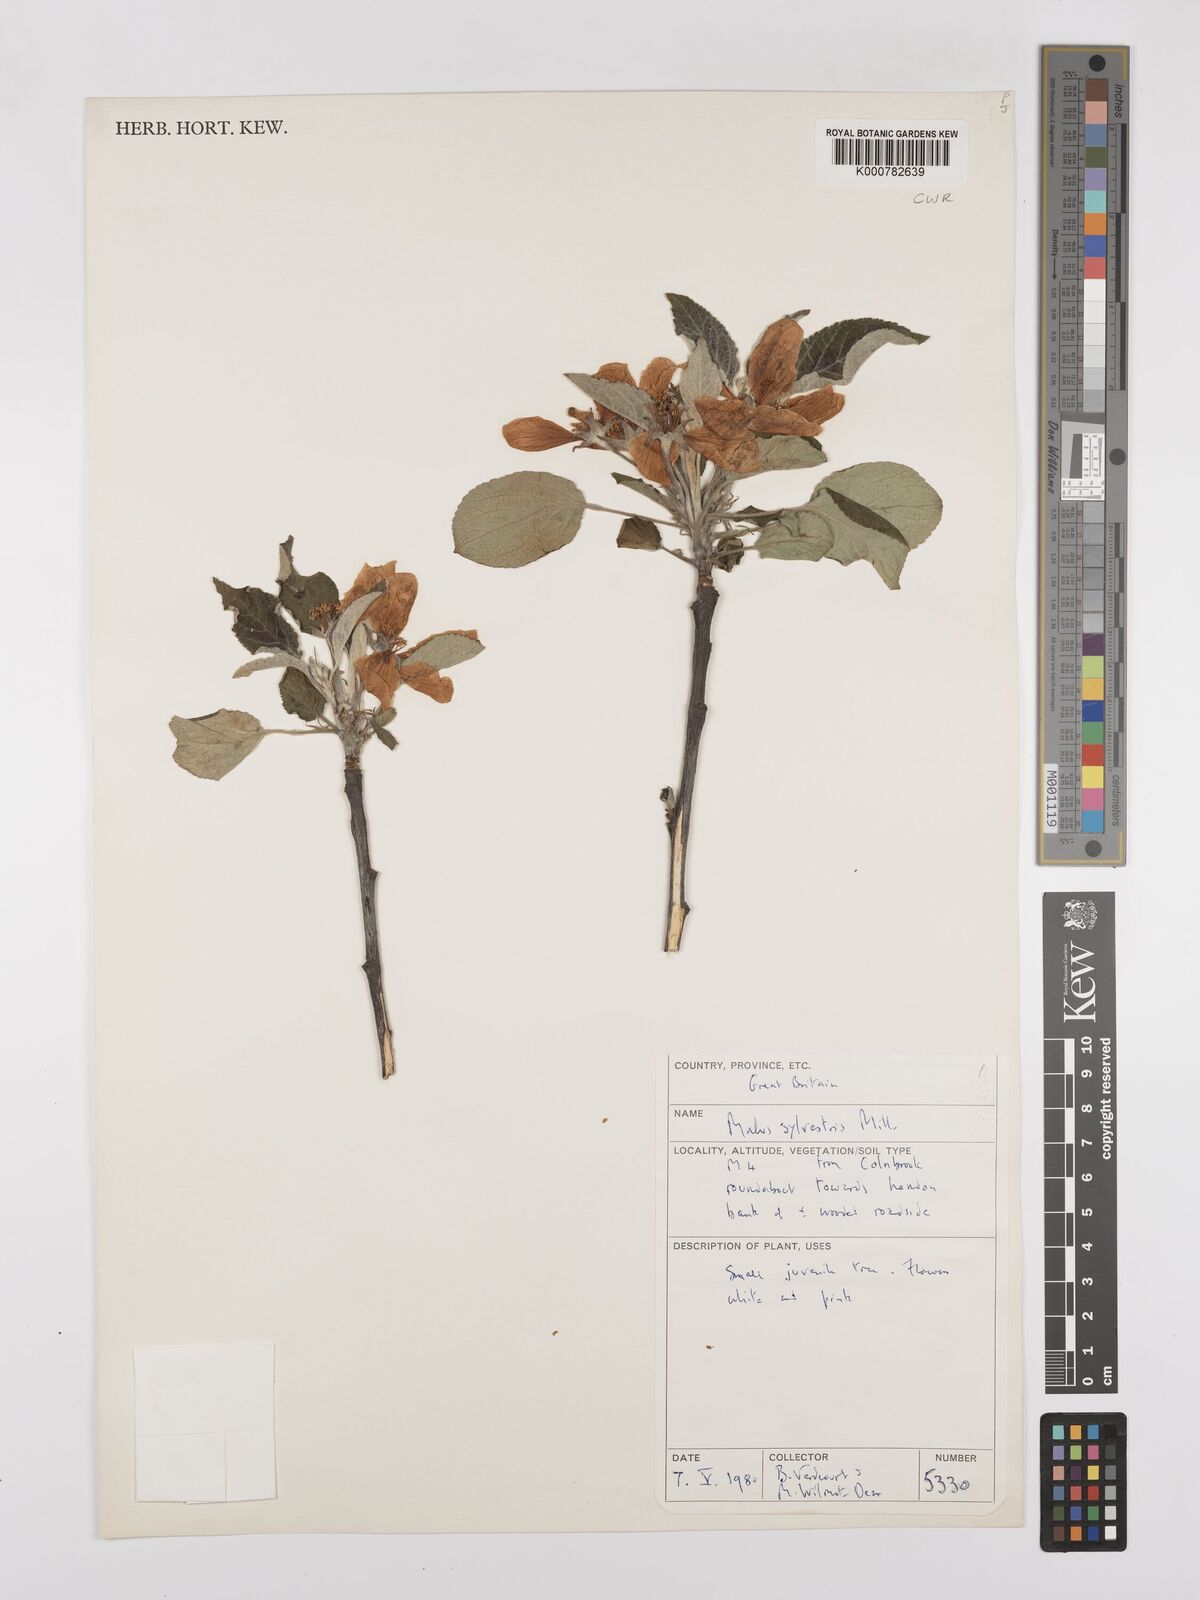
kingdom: Plantae
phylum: Tracheophyta
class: Magnoliopsida
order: Rosales
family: Rosaceae
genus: Malus
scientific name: Malus sylvestris
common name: Crab apple
